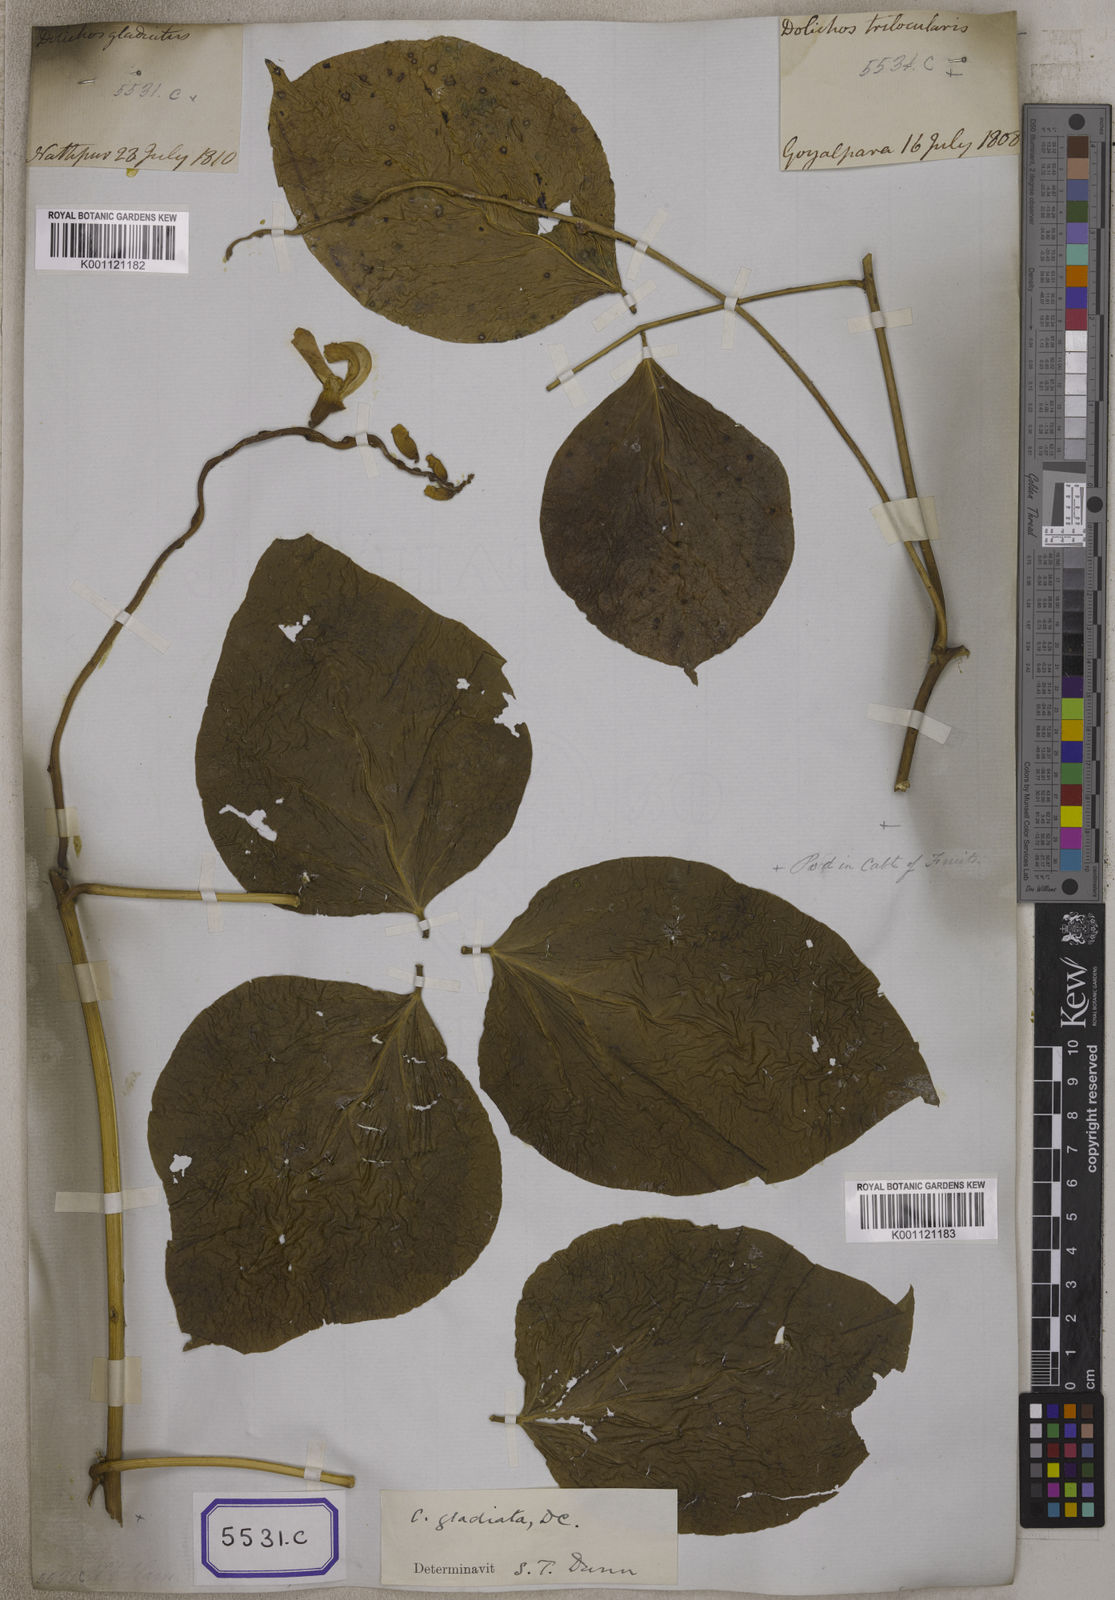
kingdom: Plantae
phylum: Tracheophyta
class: Magnoliopsida
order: Fabales
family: Fabaceae
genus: Canavalia
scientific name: Canavalia gladiata
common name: Scimitar-bean
